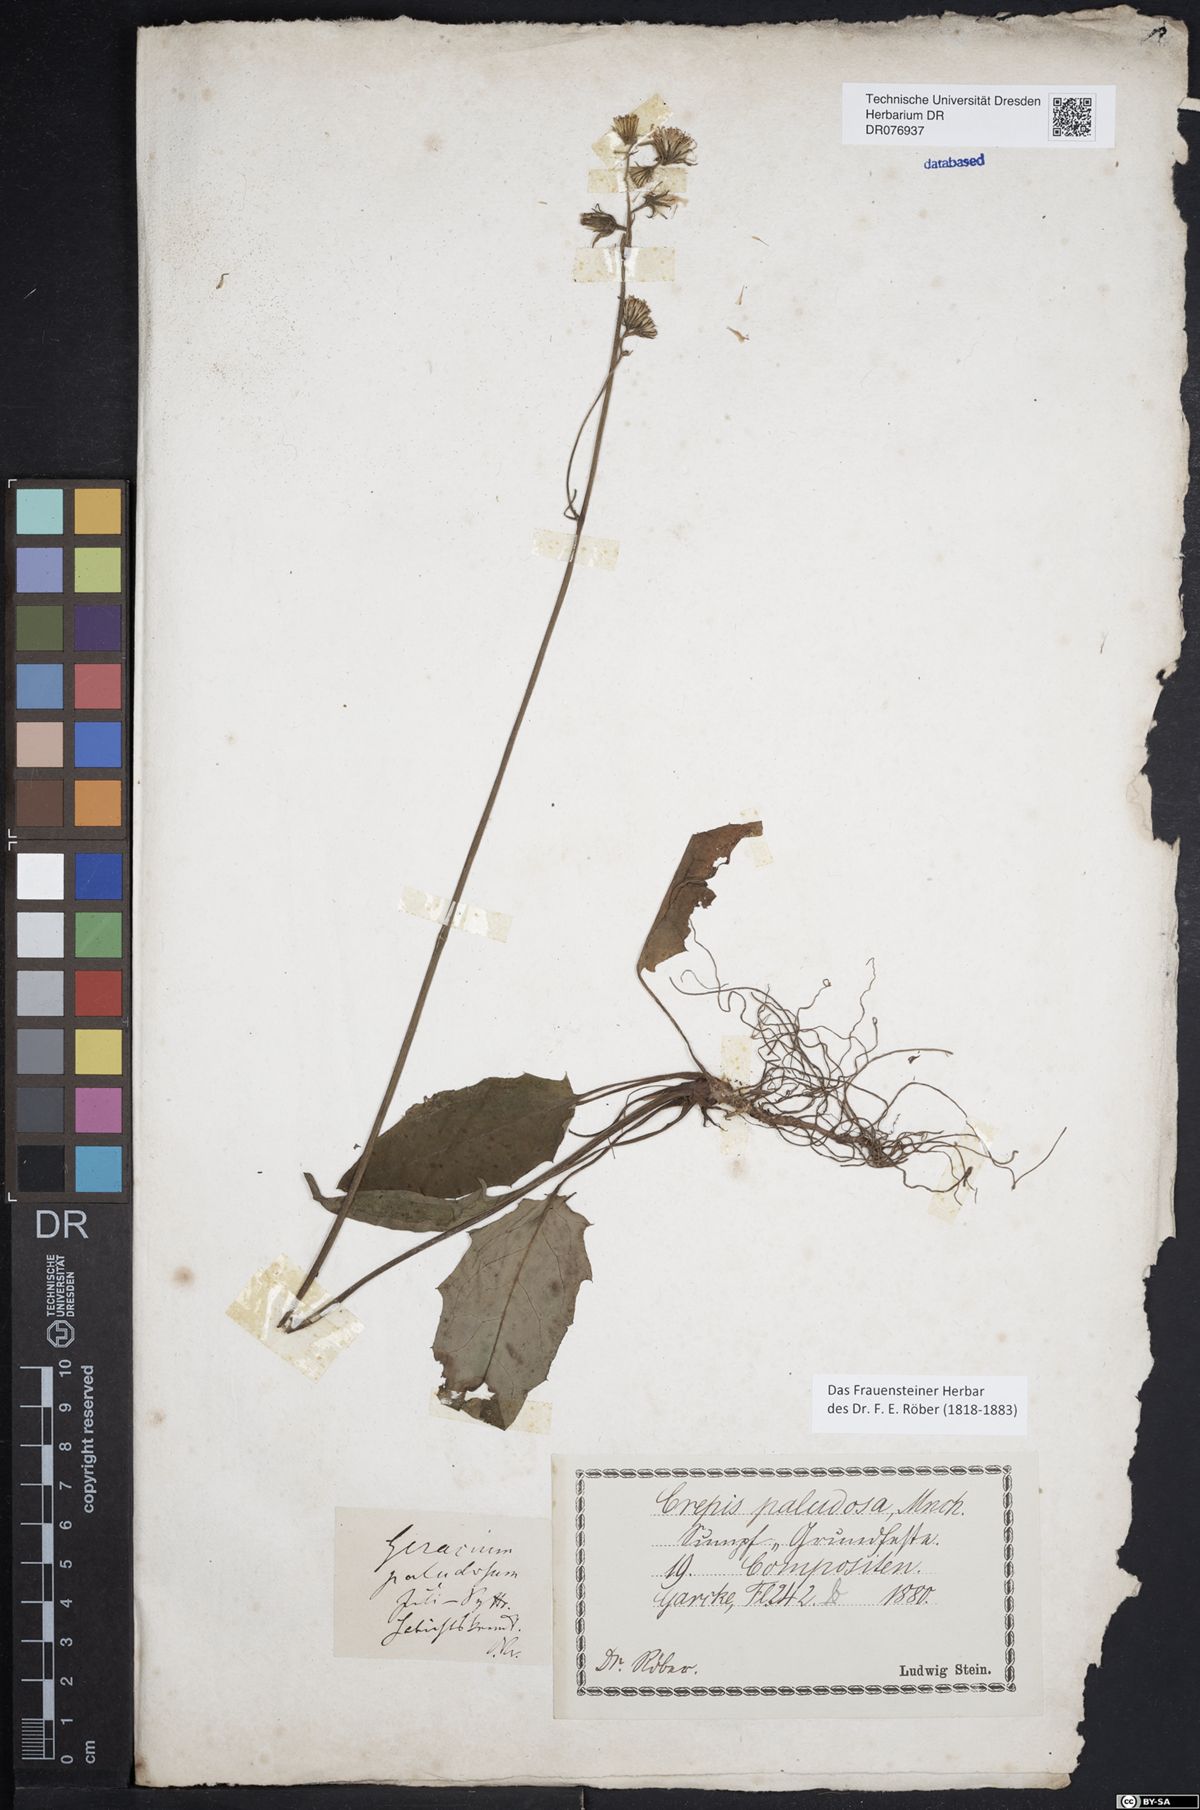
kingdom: Plantae
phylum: Tracheophyta
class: Magnoliopsida
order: Asterales
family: Asteraceae
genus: Hieracium
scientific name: Hieracium murorum
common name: Wall hawkweed
